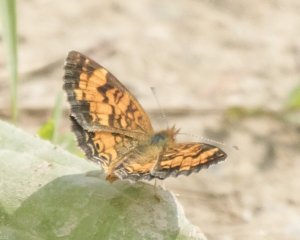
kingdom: Animalia
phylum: Arthropoda
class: Insecta
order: Lepidoptera
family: Nymphalidae
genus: Phyciodes
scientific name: Phyciodes tharos
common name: Northern Crescent
